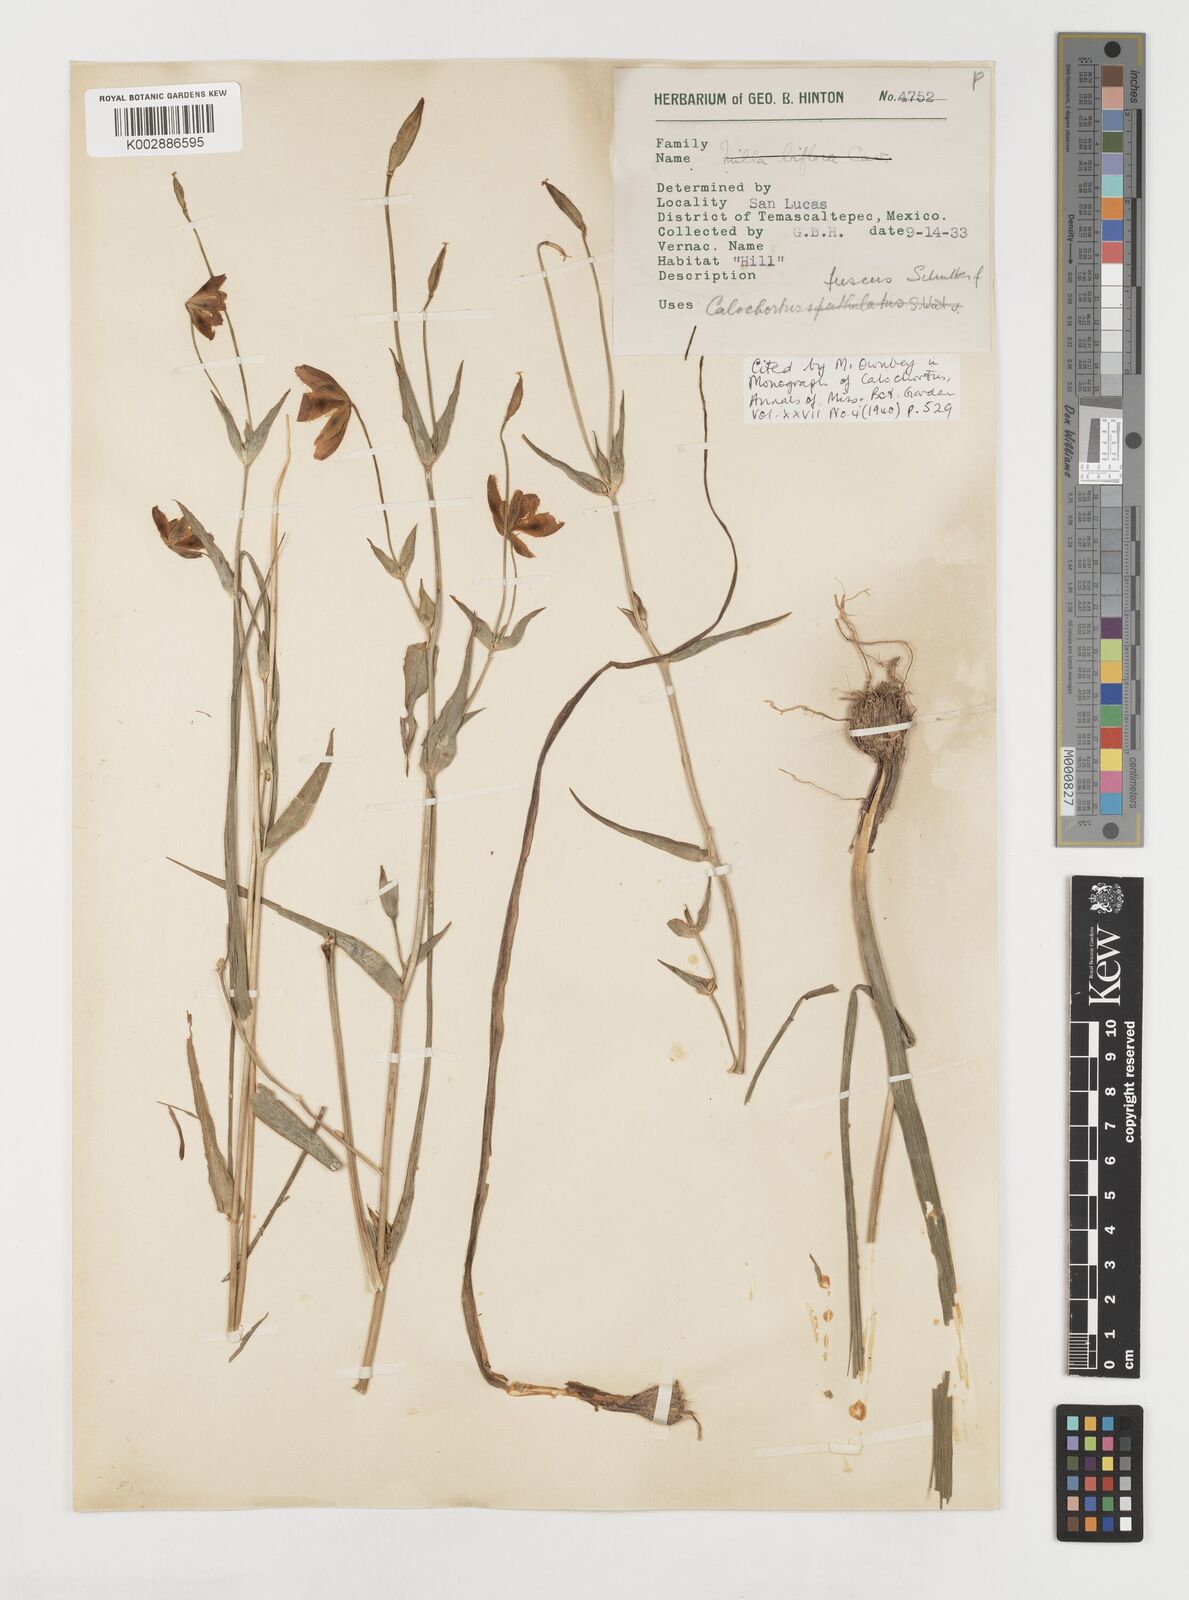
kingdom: Plantae
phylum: Tracheophyta
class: Liliopsida
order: Liliales
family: Liliaceae
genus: Calochortus
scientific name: Calochortus fuscus
